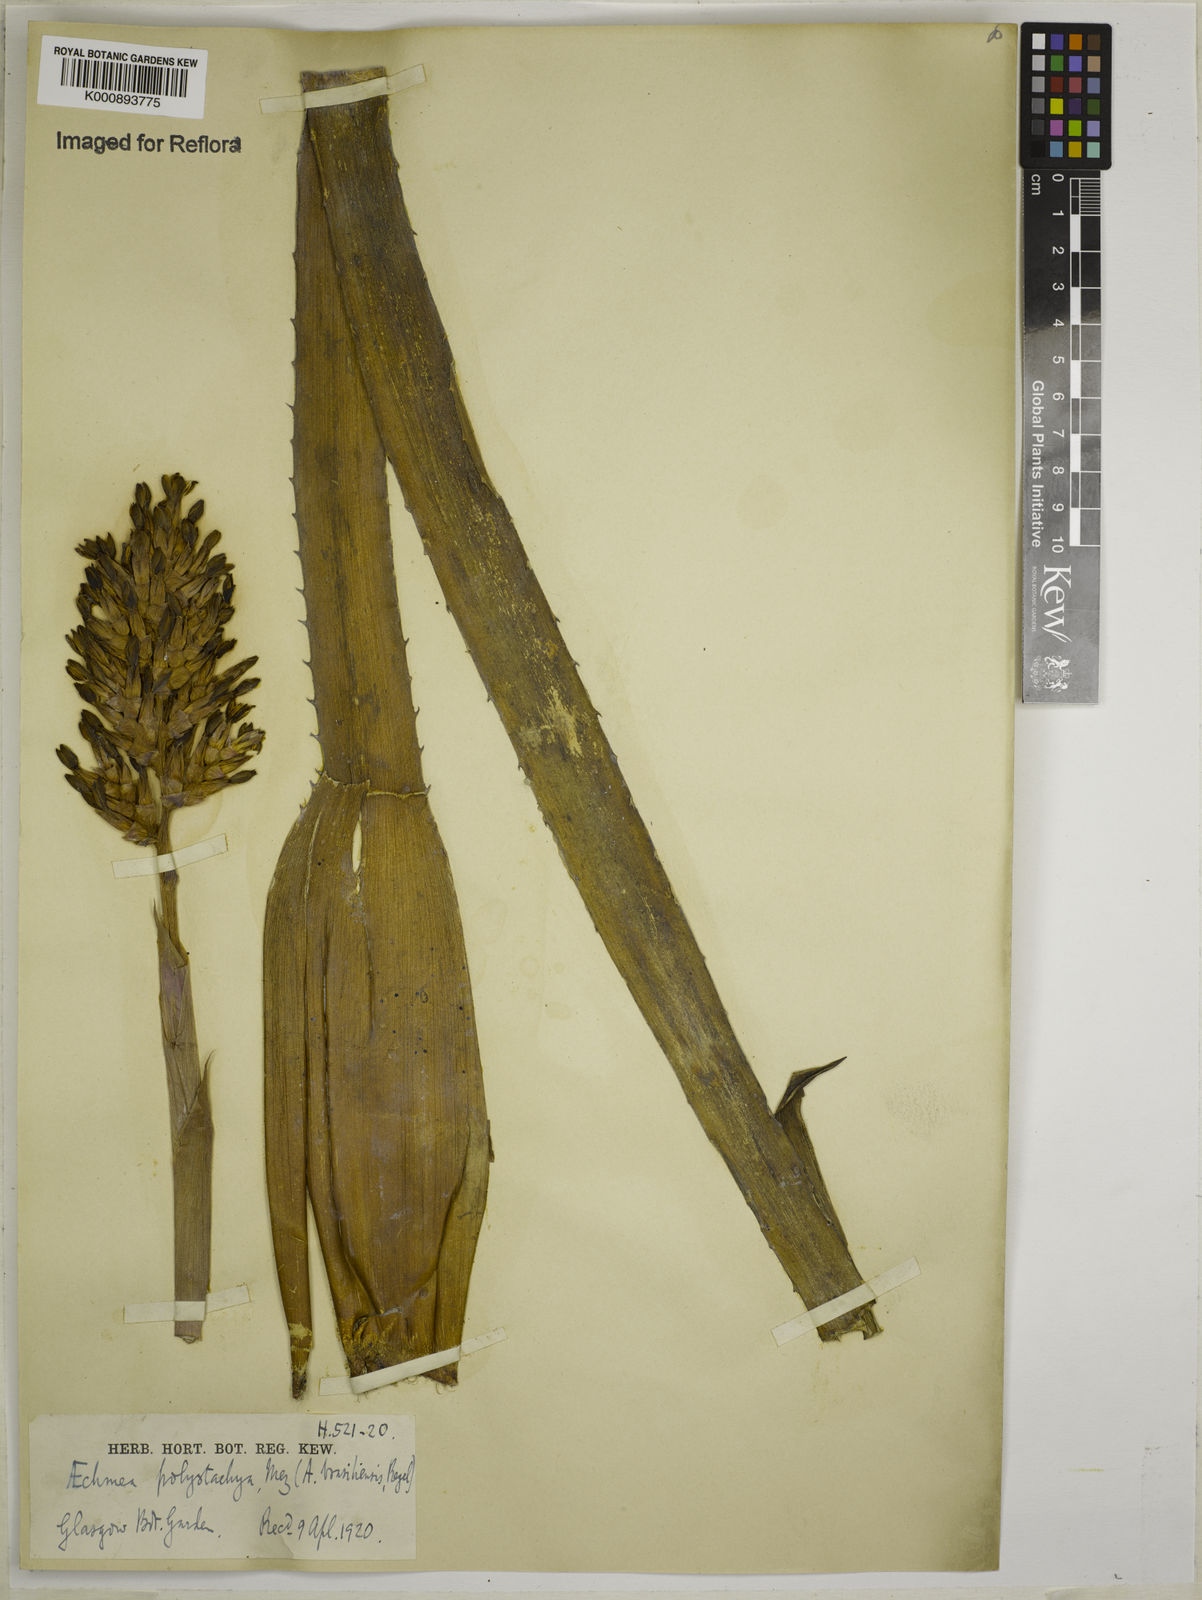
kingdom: Plantae
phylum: Tracheophyta
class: Liliopsida
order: Poales
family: Bromeliaceae
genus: Aechmea
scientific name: Aechmea distichantha
